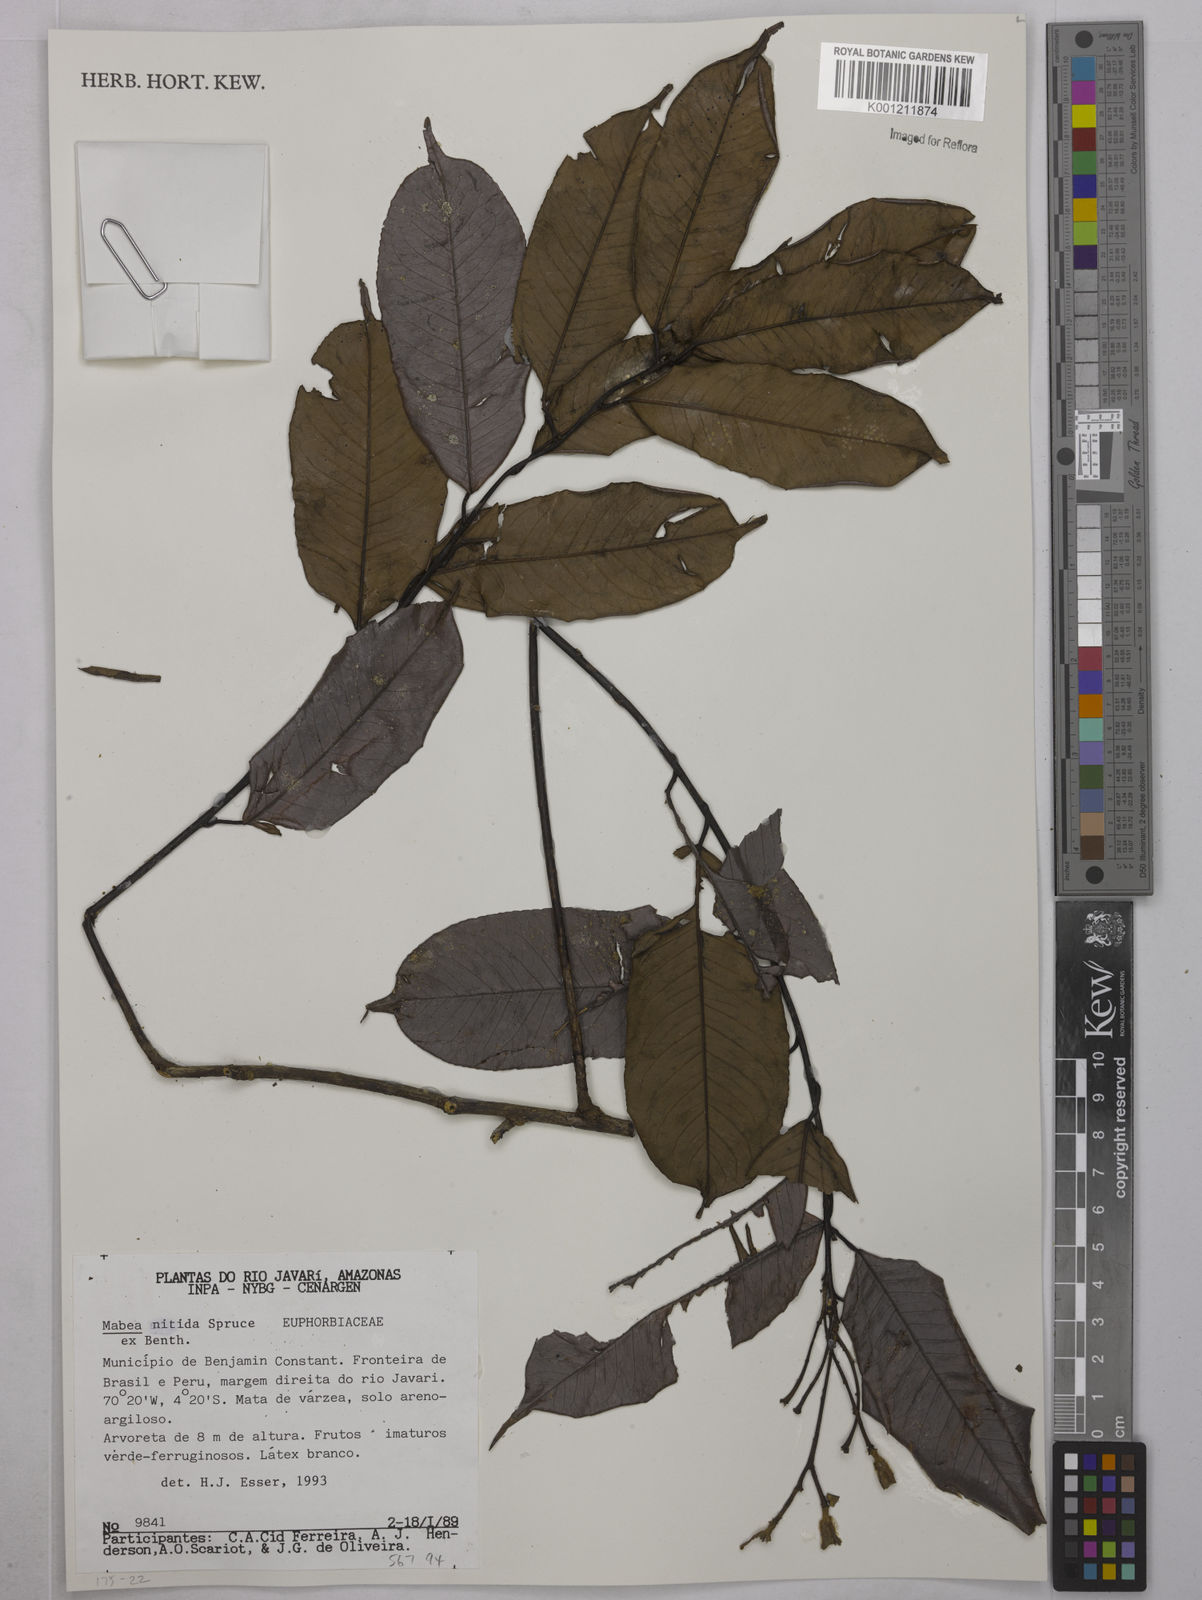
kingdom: Plantae
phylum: Tracheophyta
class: Magnoliopsida
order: Malpighiales
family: Euphorbiaceae
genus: Mabea
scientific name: Mabea nitida
